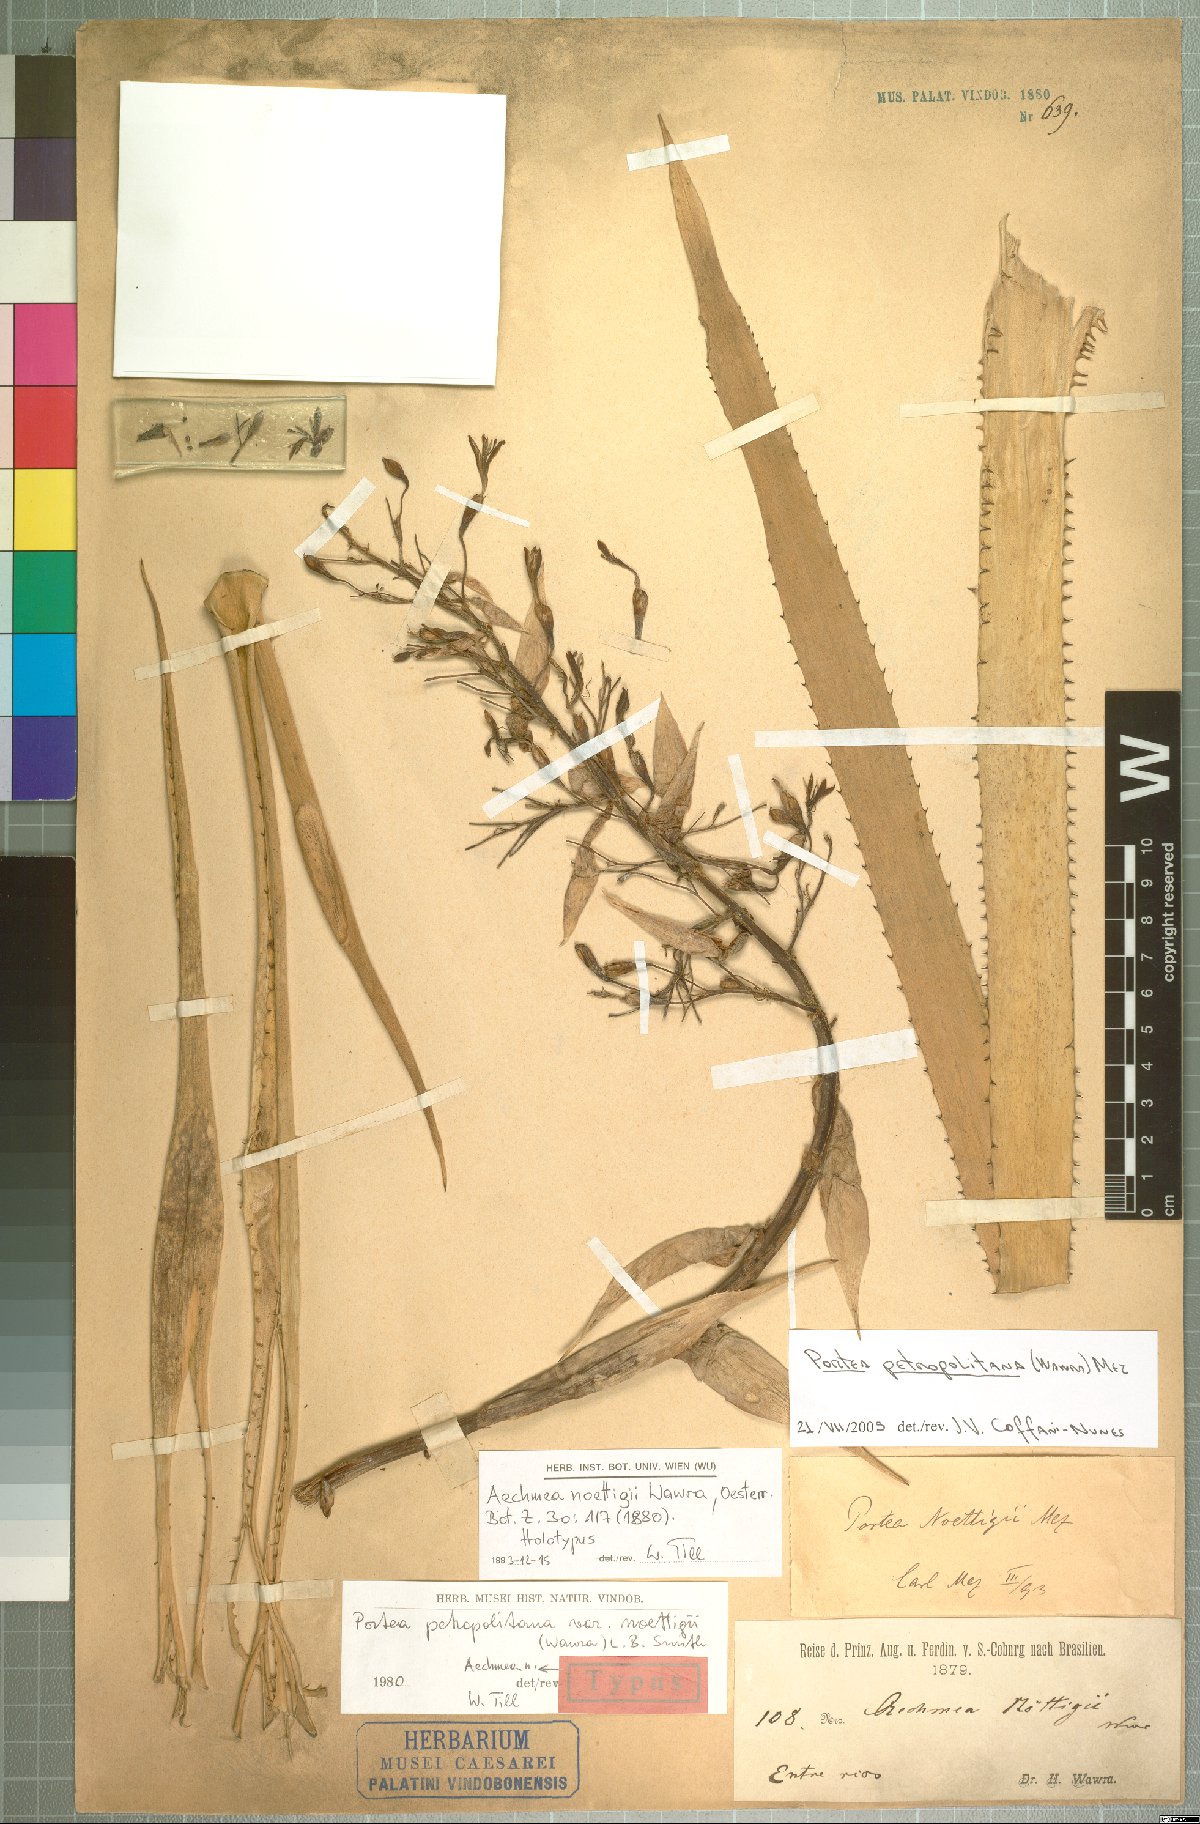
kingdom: Plantae
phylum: Tracheophyta
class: Liliopsida
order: Poales
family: Bromeliaceae
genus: Portea
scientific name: Portea petropolitana
